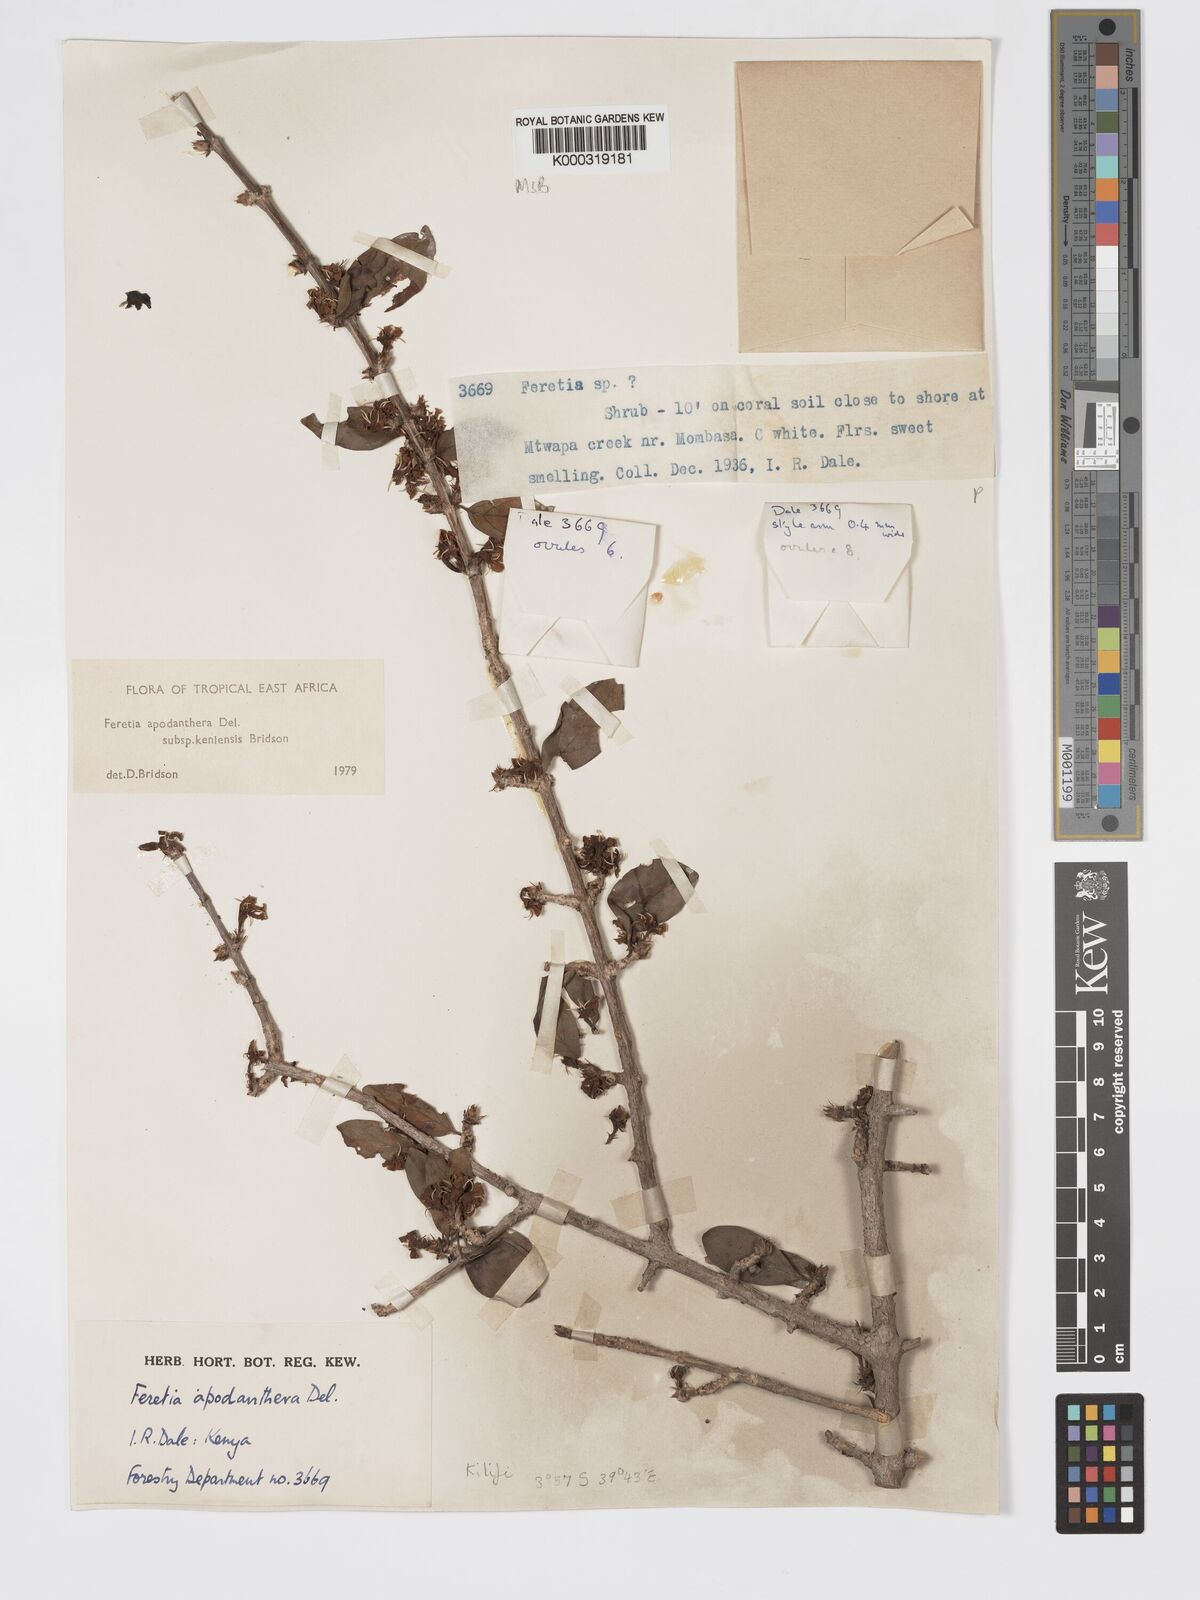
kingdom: Plantae
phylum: Tracheophyta
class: Magnoliopsida
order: Gentianales
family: Rubiaceae
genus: Feretia
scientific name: Feretia apodanthera
